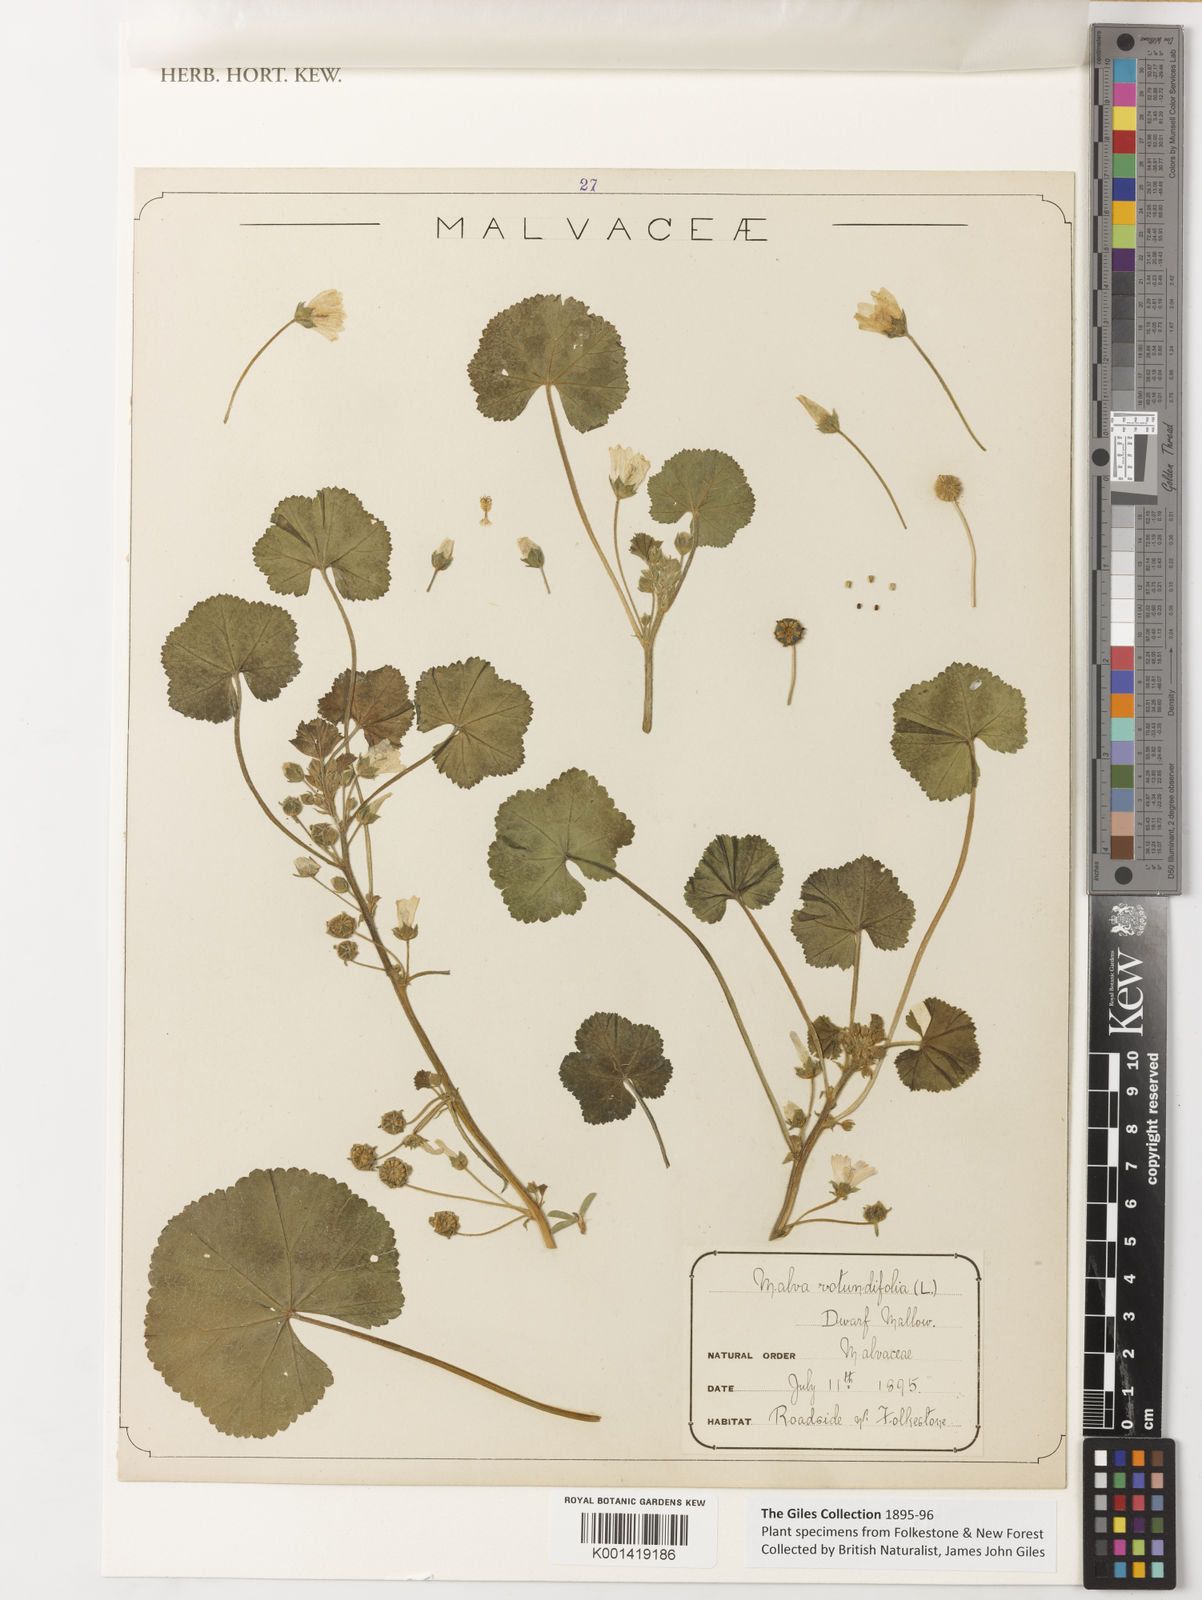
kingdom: Plantae
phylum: Tracheophyta
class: Magnoliopsida
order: Malvales
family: Malvaceae
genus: Malva
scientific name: Malva pusilla
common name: Small mallow
